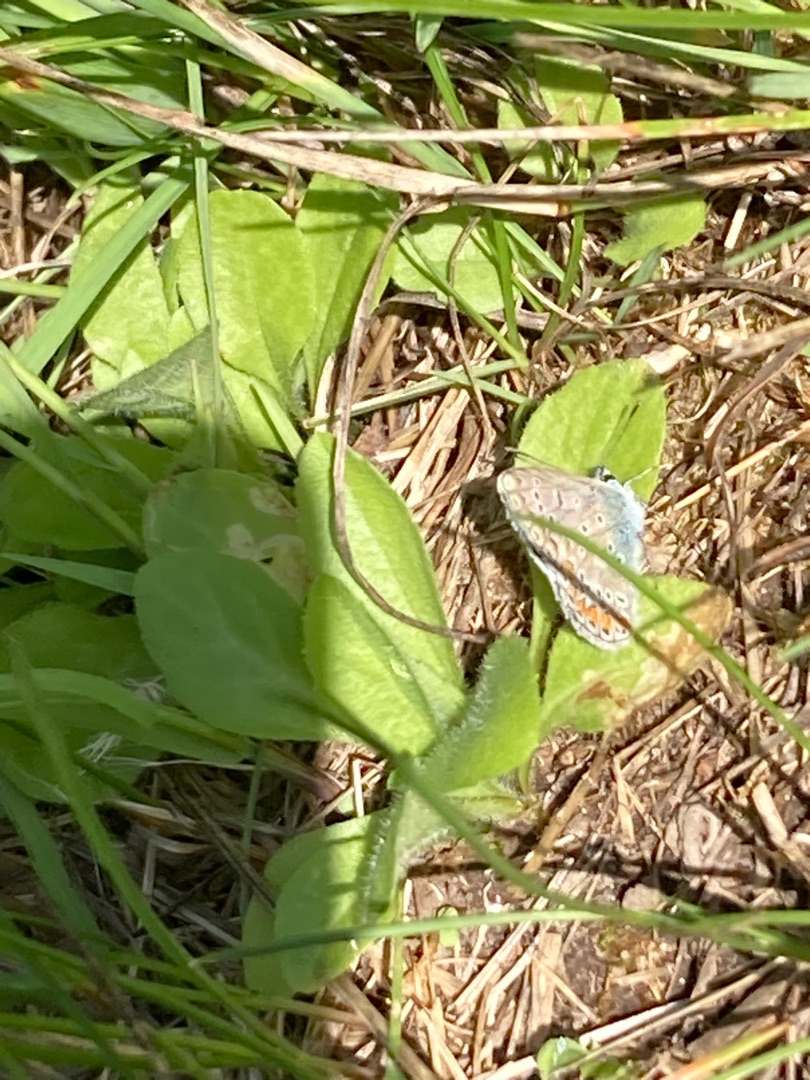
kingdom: Animalia
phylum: Arthropoda
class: Insecta
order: Lepidoptera
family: Lycaenidae
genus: Polyommatus
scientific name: Polyommatus icarus
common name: Almindelig blåfugl
